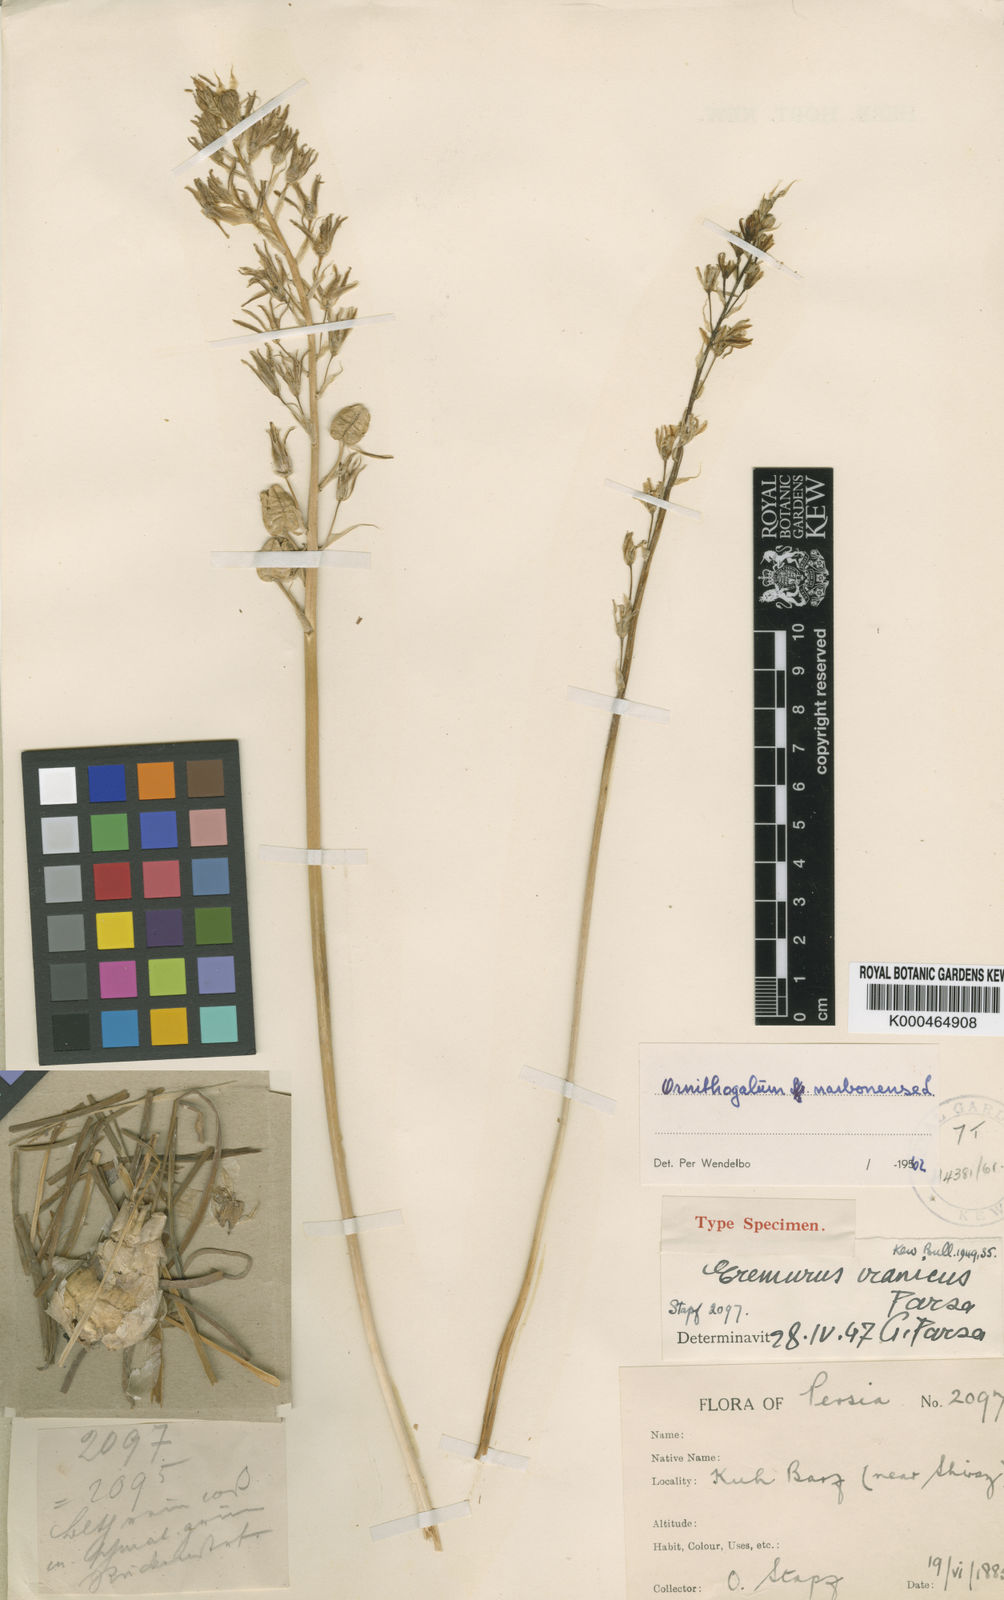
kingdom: Plantae
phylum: Tracheophyta
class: Liliopsida
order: Asparagales
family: Asparagaceae
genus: Ornithogalum
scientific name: Ornithogalum narbonense
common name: Bath-asparagus
